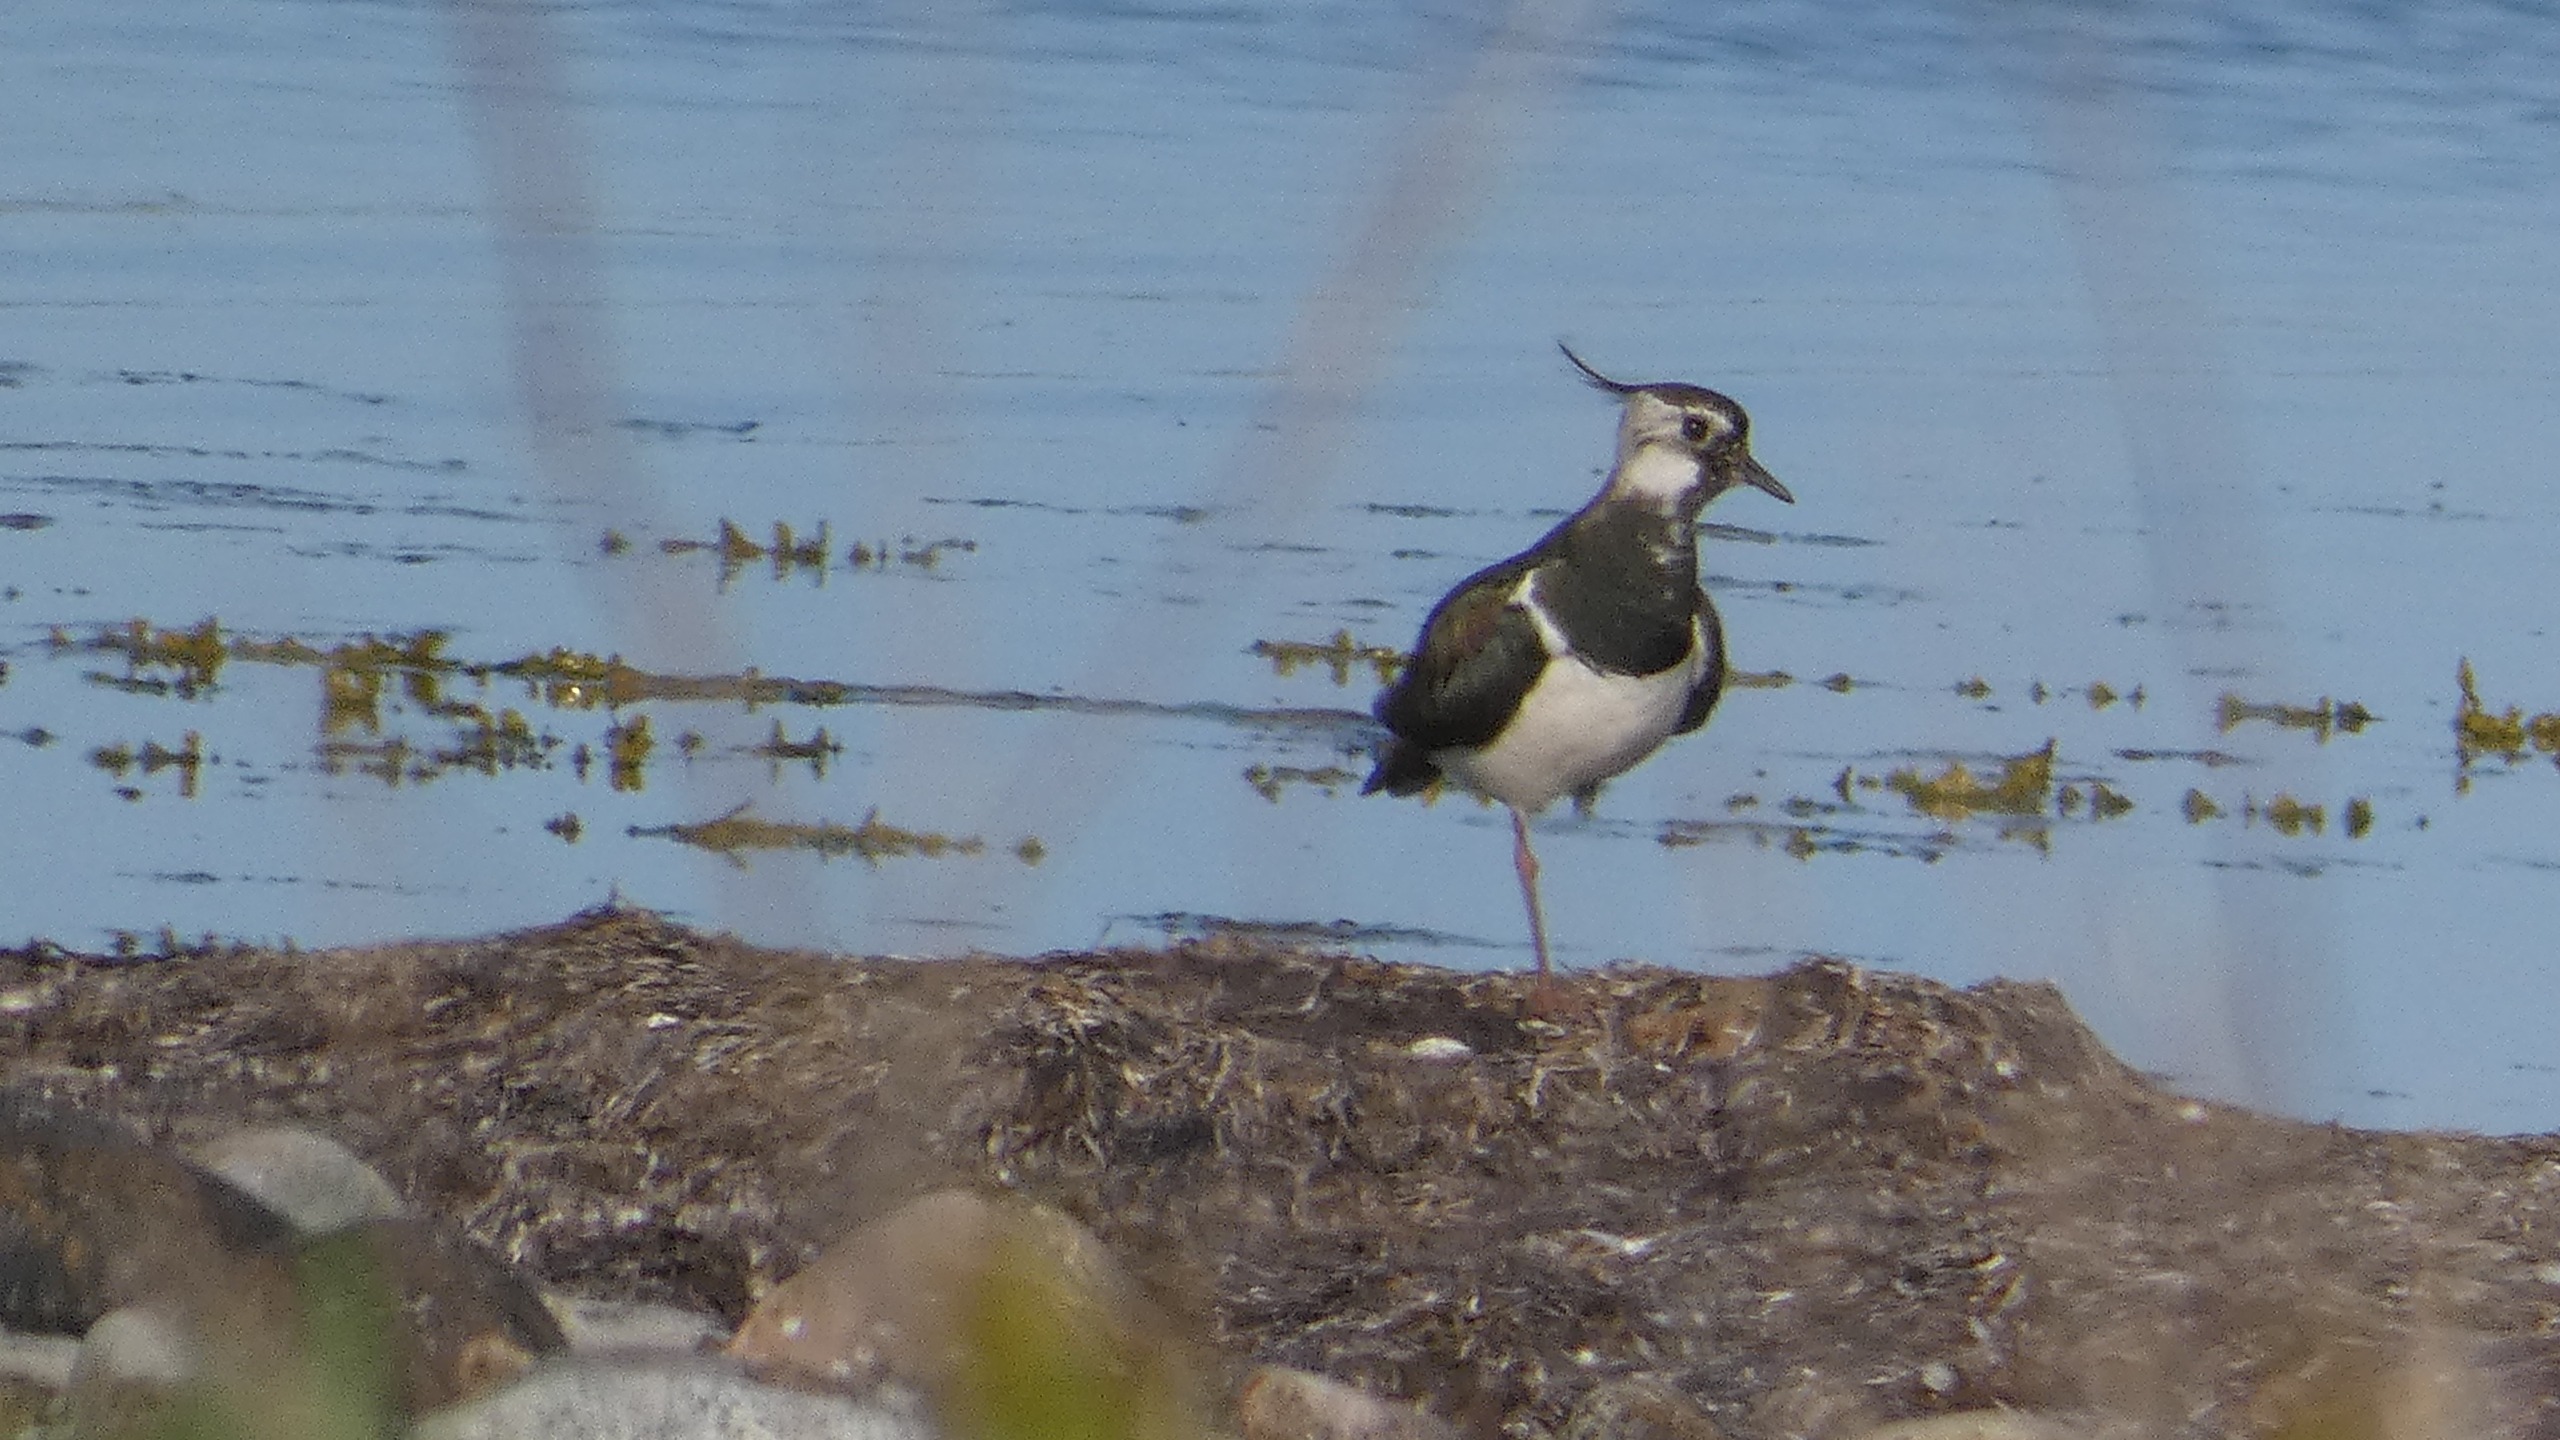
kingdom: Animalia
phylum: Chordata
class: Aves
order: Charadriiformes
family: Charadriidae
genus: Vanellus
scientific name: Vanellus vanellus
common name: Vibe
